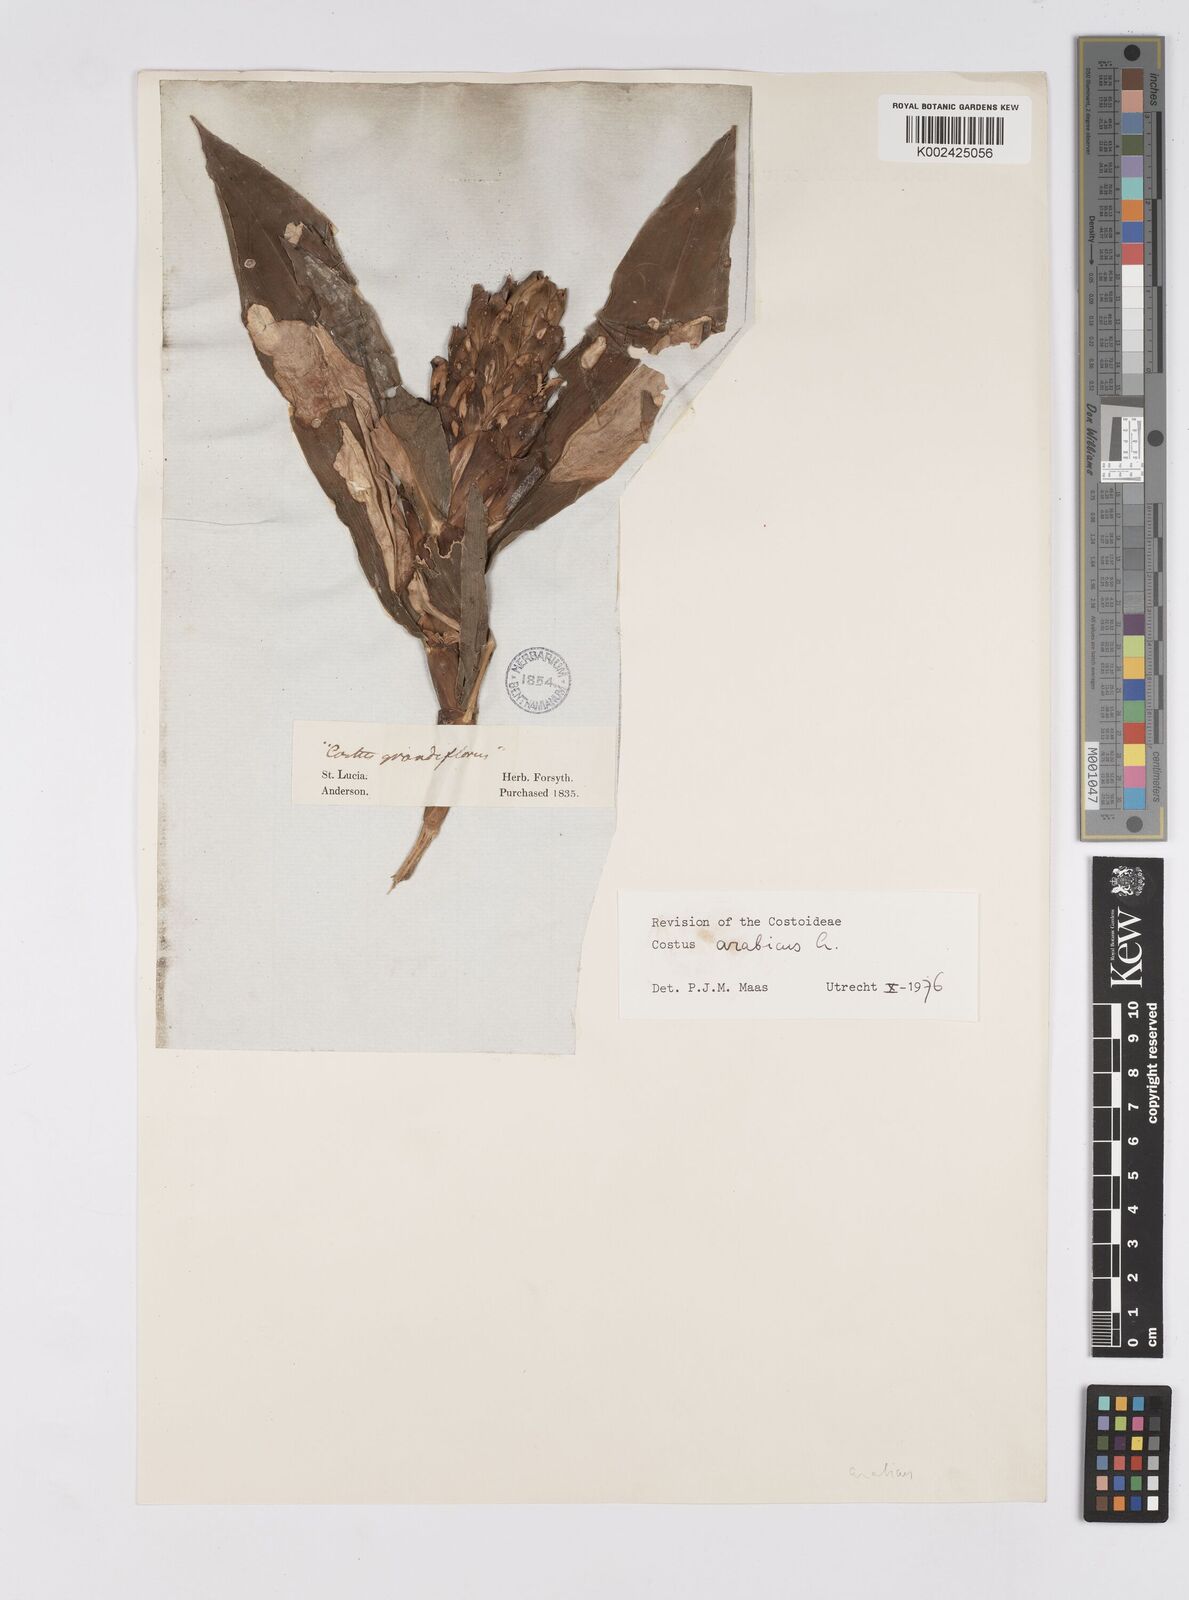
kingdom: Plantae
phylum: Tracheophyta
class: Liliopsida
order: Zingiberales
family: Costaceae
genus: Costus
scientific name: Costus arabicus
